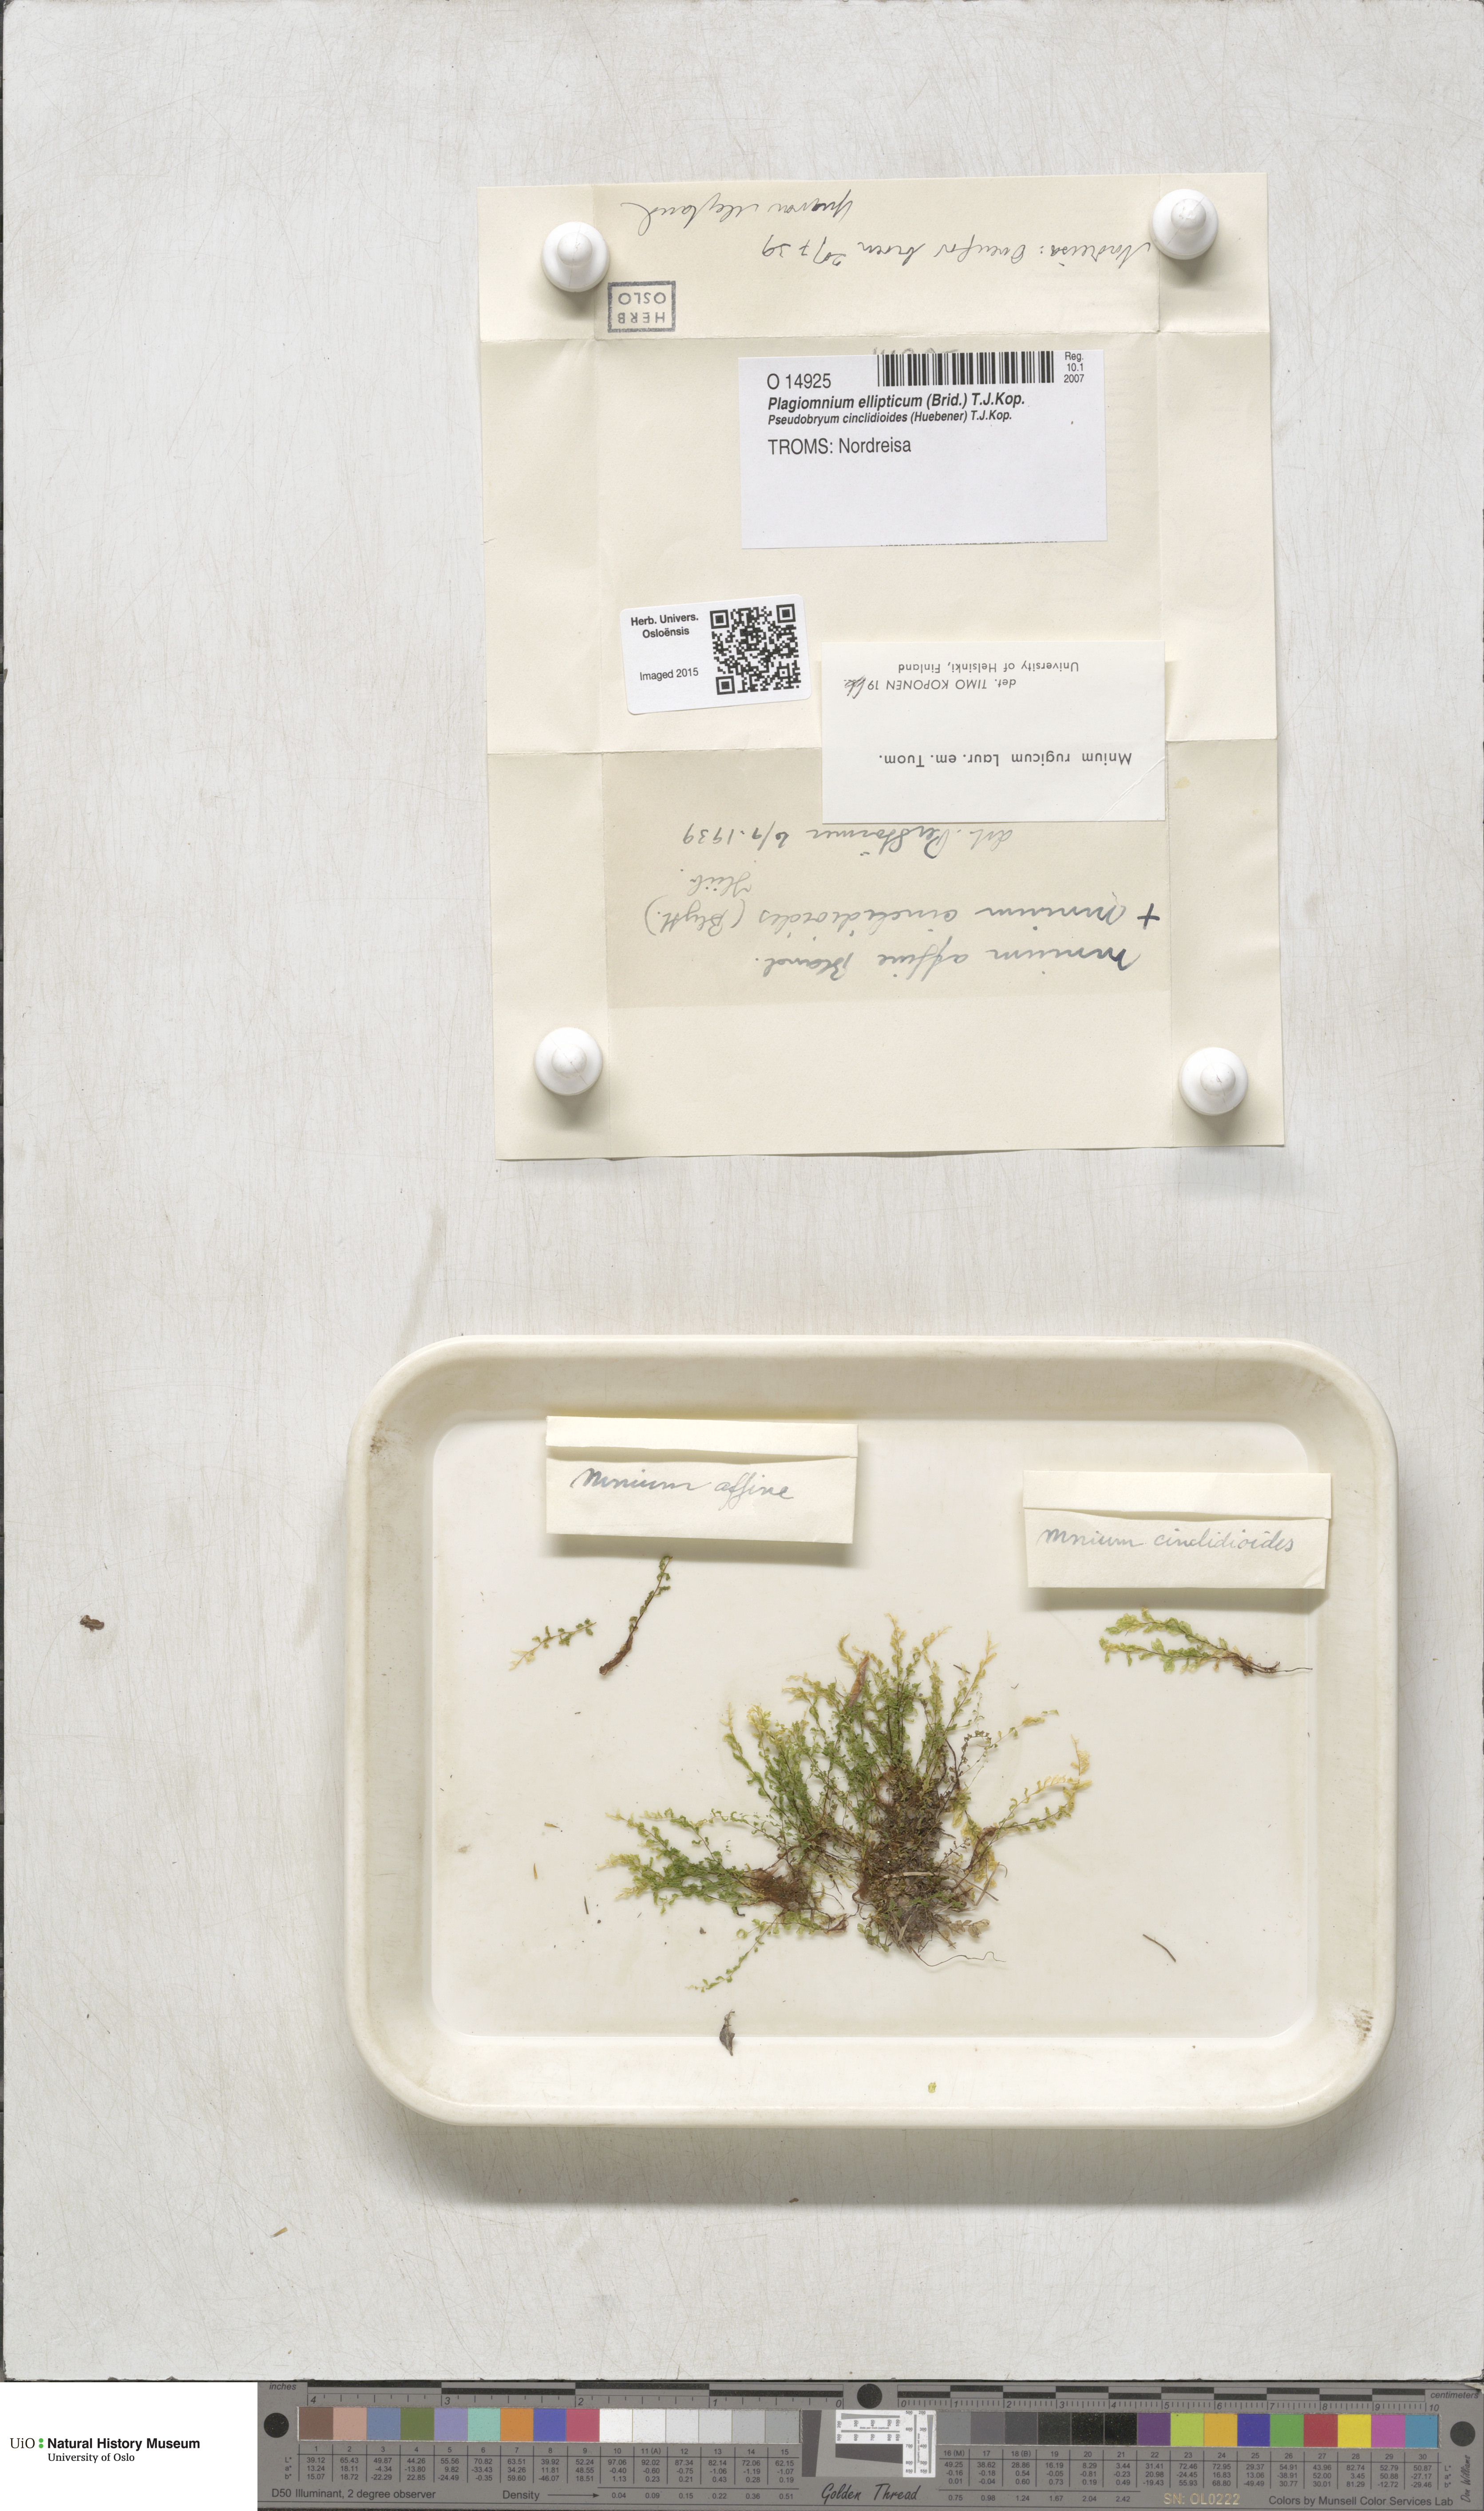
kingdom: Plantae
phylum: Bryophyta
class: Bryopsida
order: Bryales
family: Mniaceae
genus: Plagiomnium
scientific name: Plagiomnium ellipticum
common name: Marsh leafy moss
